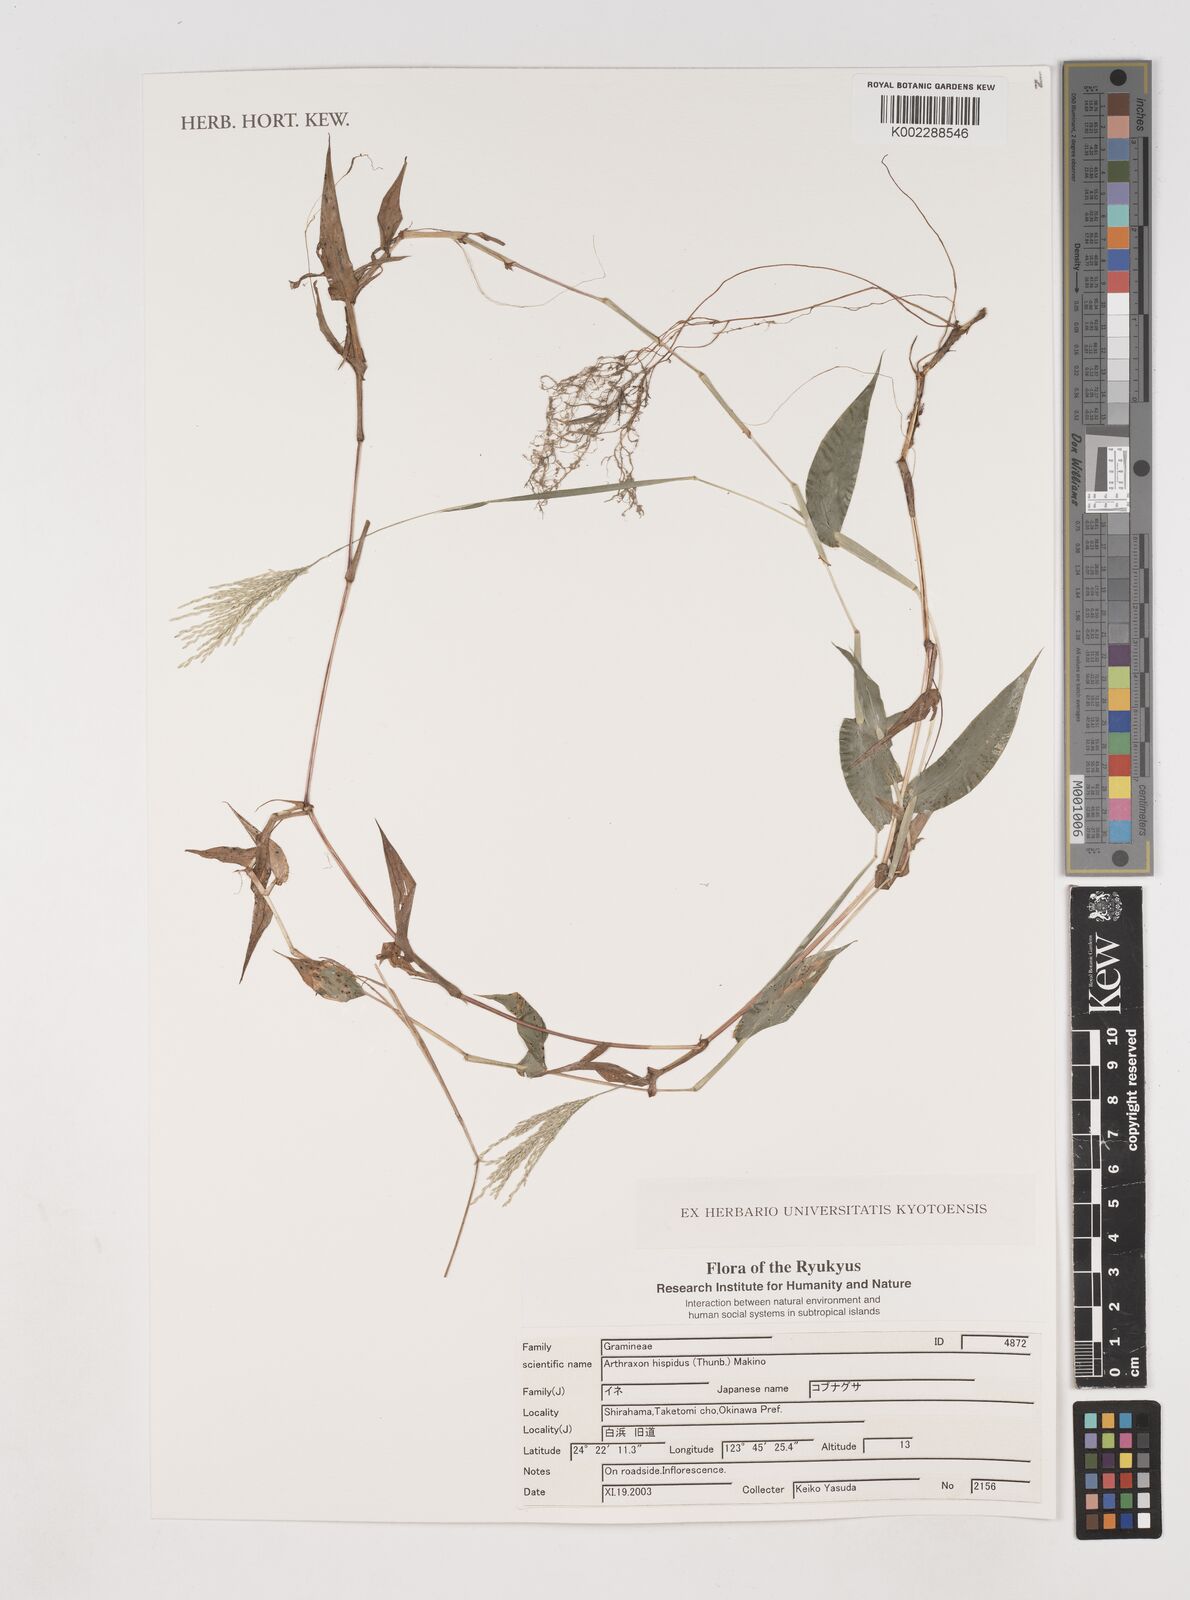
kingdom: Plantae
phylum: Tracheophyta
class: Liliopsida
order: Poales
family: Poaceae
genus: Arthraxon
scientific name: Arthraxon hispidus
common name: Small carpgrass
